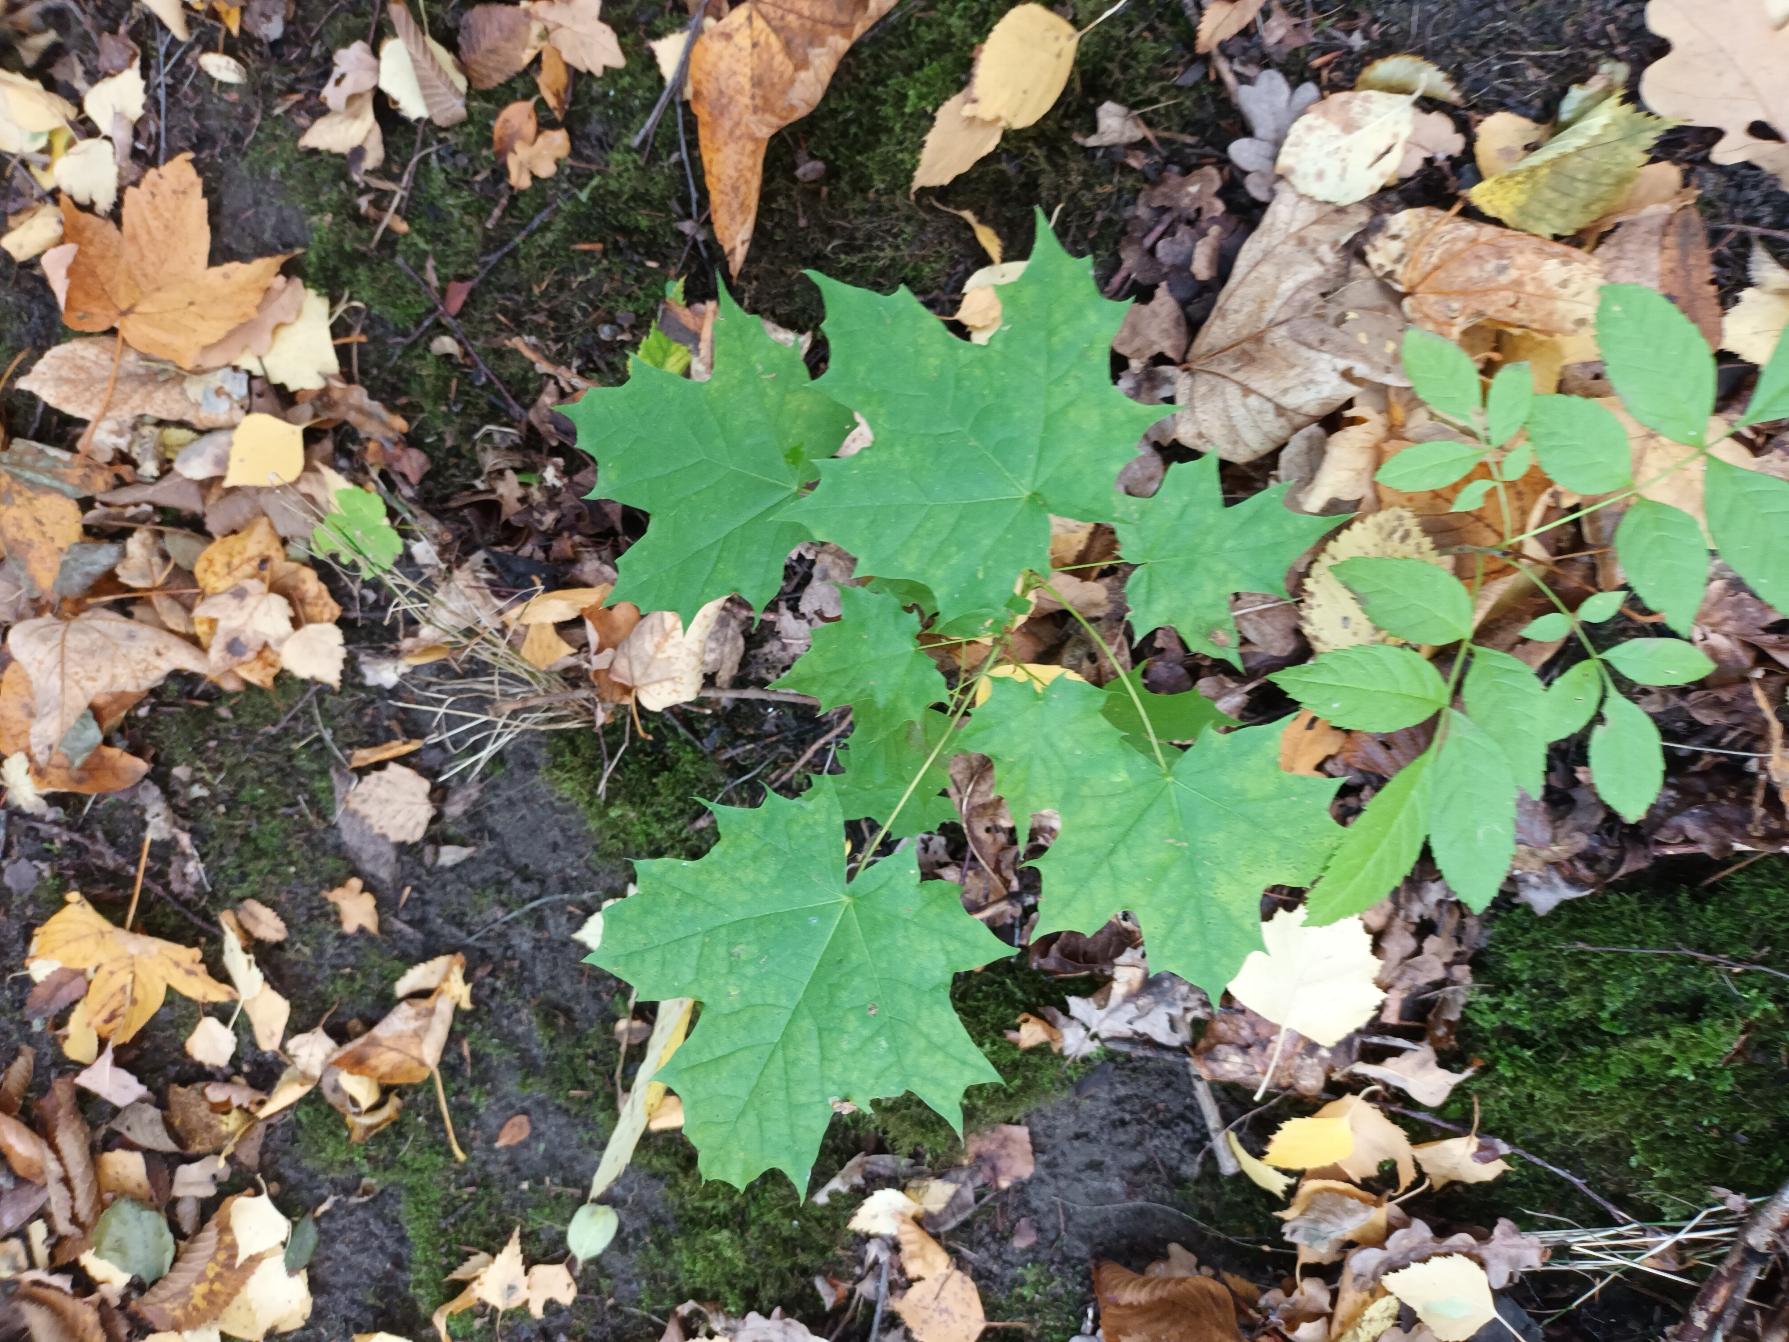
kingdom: Plantae
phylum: Tracheophyta
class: Magnoliopsida
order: Sapindales
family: Sapindaceae
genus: Acer
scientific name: Acer platanoides
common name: Spids-løn
